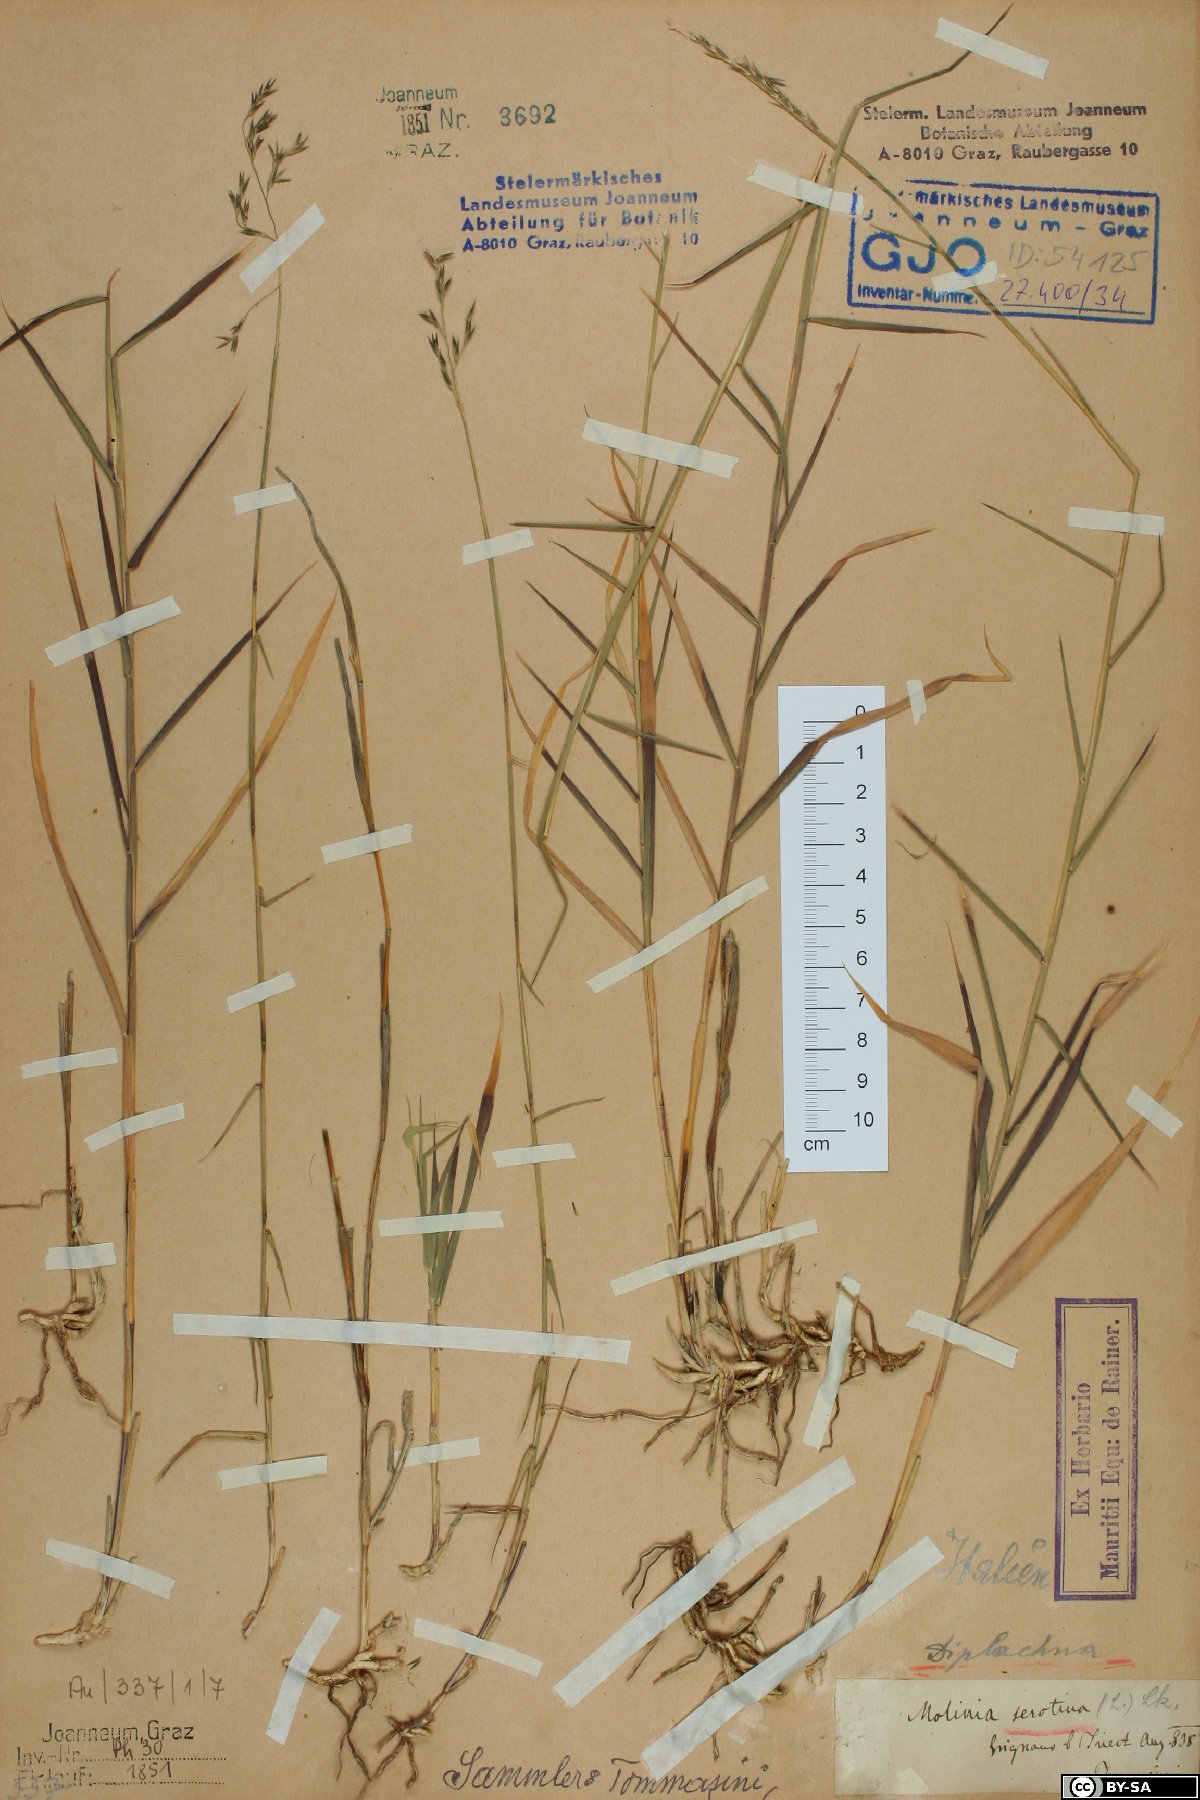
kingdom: Plantae
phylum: Tracheophyta
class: Liliopsida
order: Poales
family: Poaceae
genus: Cleistogenes
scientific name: Cleistogenes serotina
